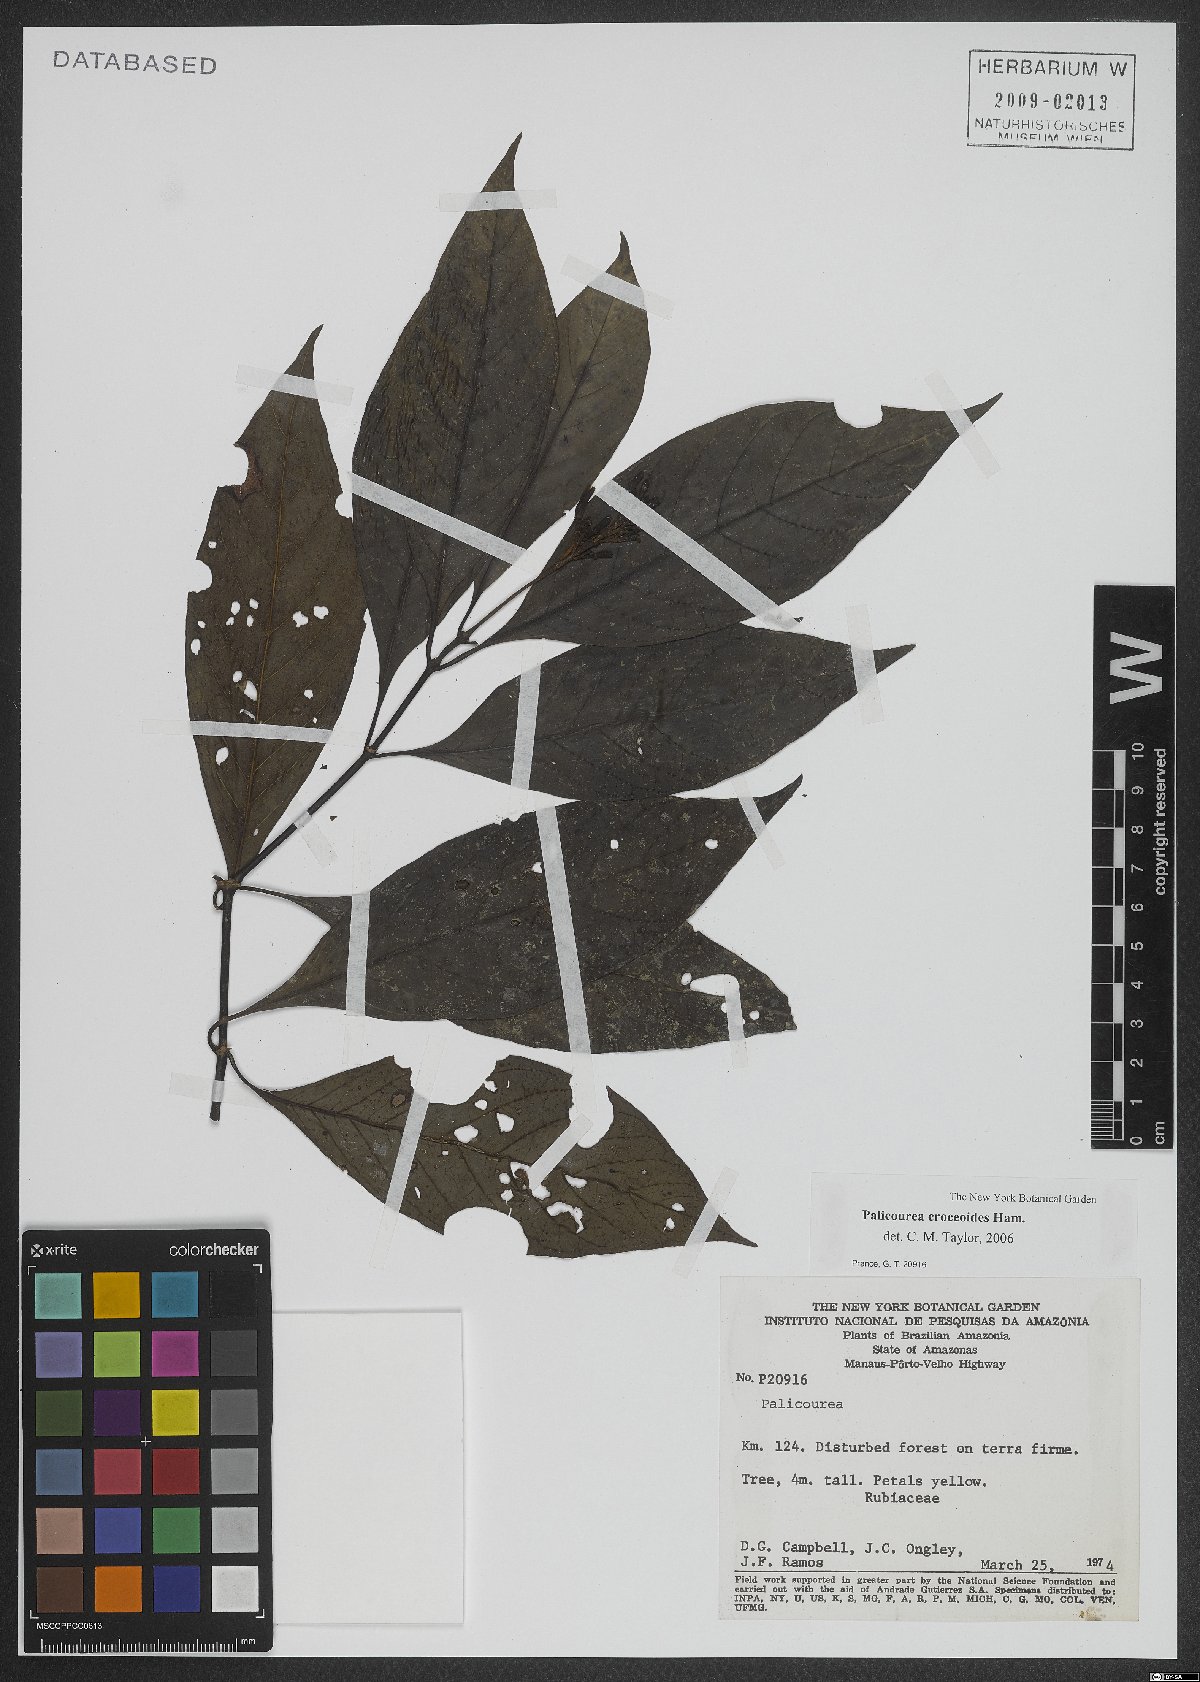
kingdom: Plantae
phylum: Tracheophyta
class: Magnoliopsida
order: Gentianales
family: Rubiaceae
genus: Palicourea
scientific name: Palicourea croceoides
